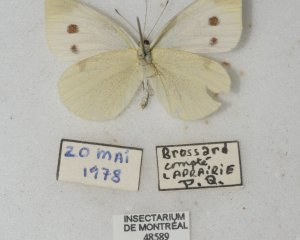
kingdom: Animalia
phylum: Arthropoda
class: Insecta
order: Lepidoptera
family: Pieridae
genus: Pieris
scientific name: Pieris rapae
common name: Cabbage White
